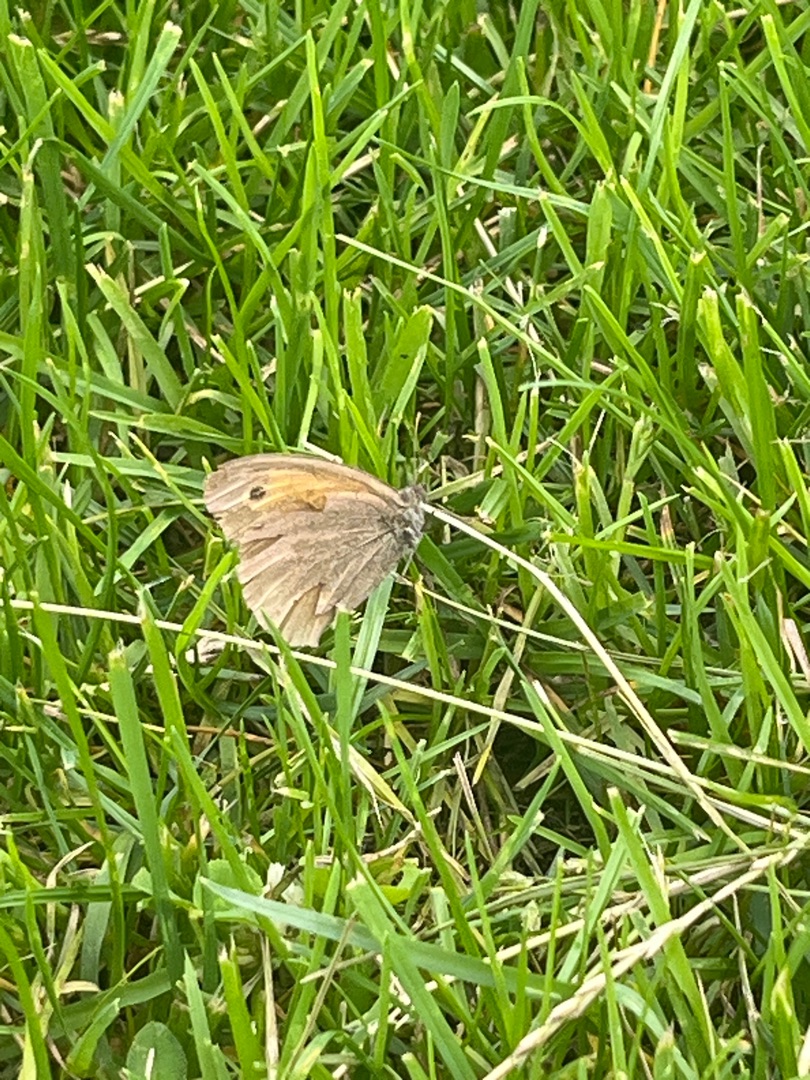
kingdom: Animalia
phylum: Arthropoda
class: Insecta
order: Lepidoptera
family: Nymphalidae
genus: Maniola
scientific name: Maniola jurtina
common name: Græsrandøje
